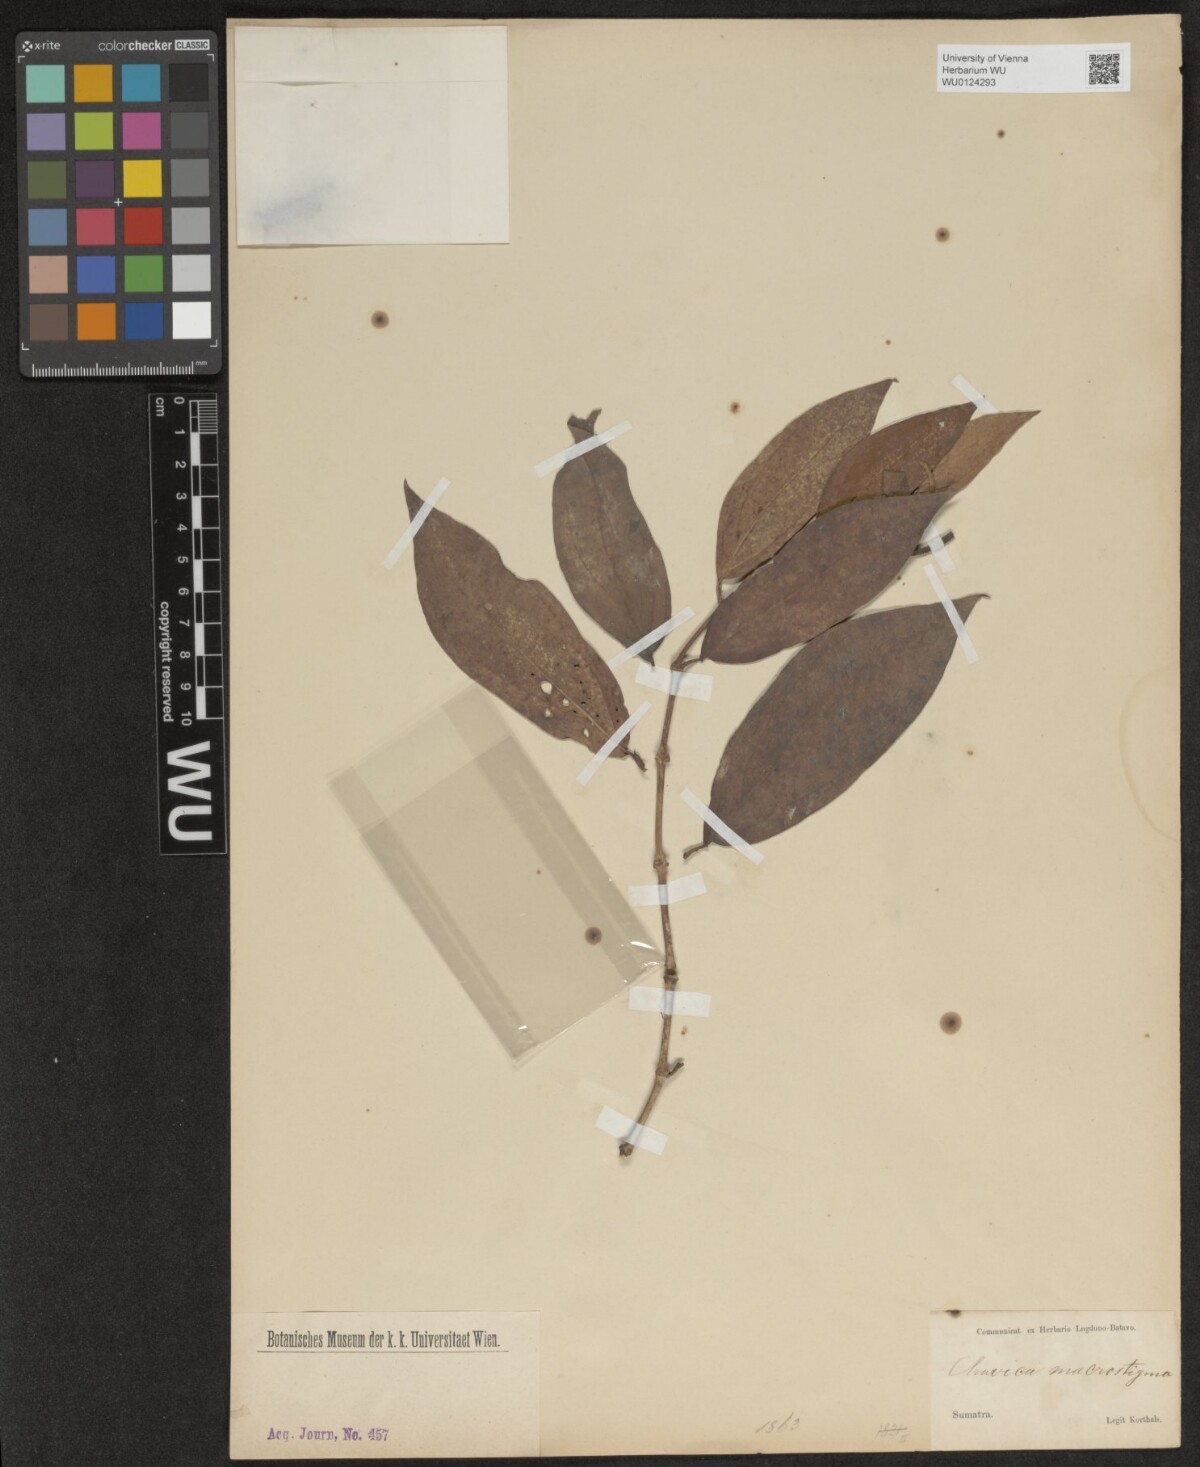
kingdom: Plantae
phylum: Tracheophyta
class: Magnoliopsida
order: Piperales
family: Piperaceae
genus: Piper
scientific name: Piper
